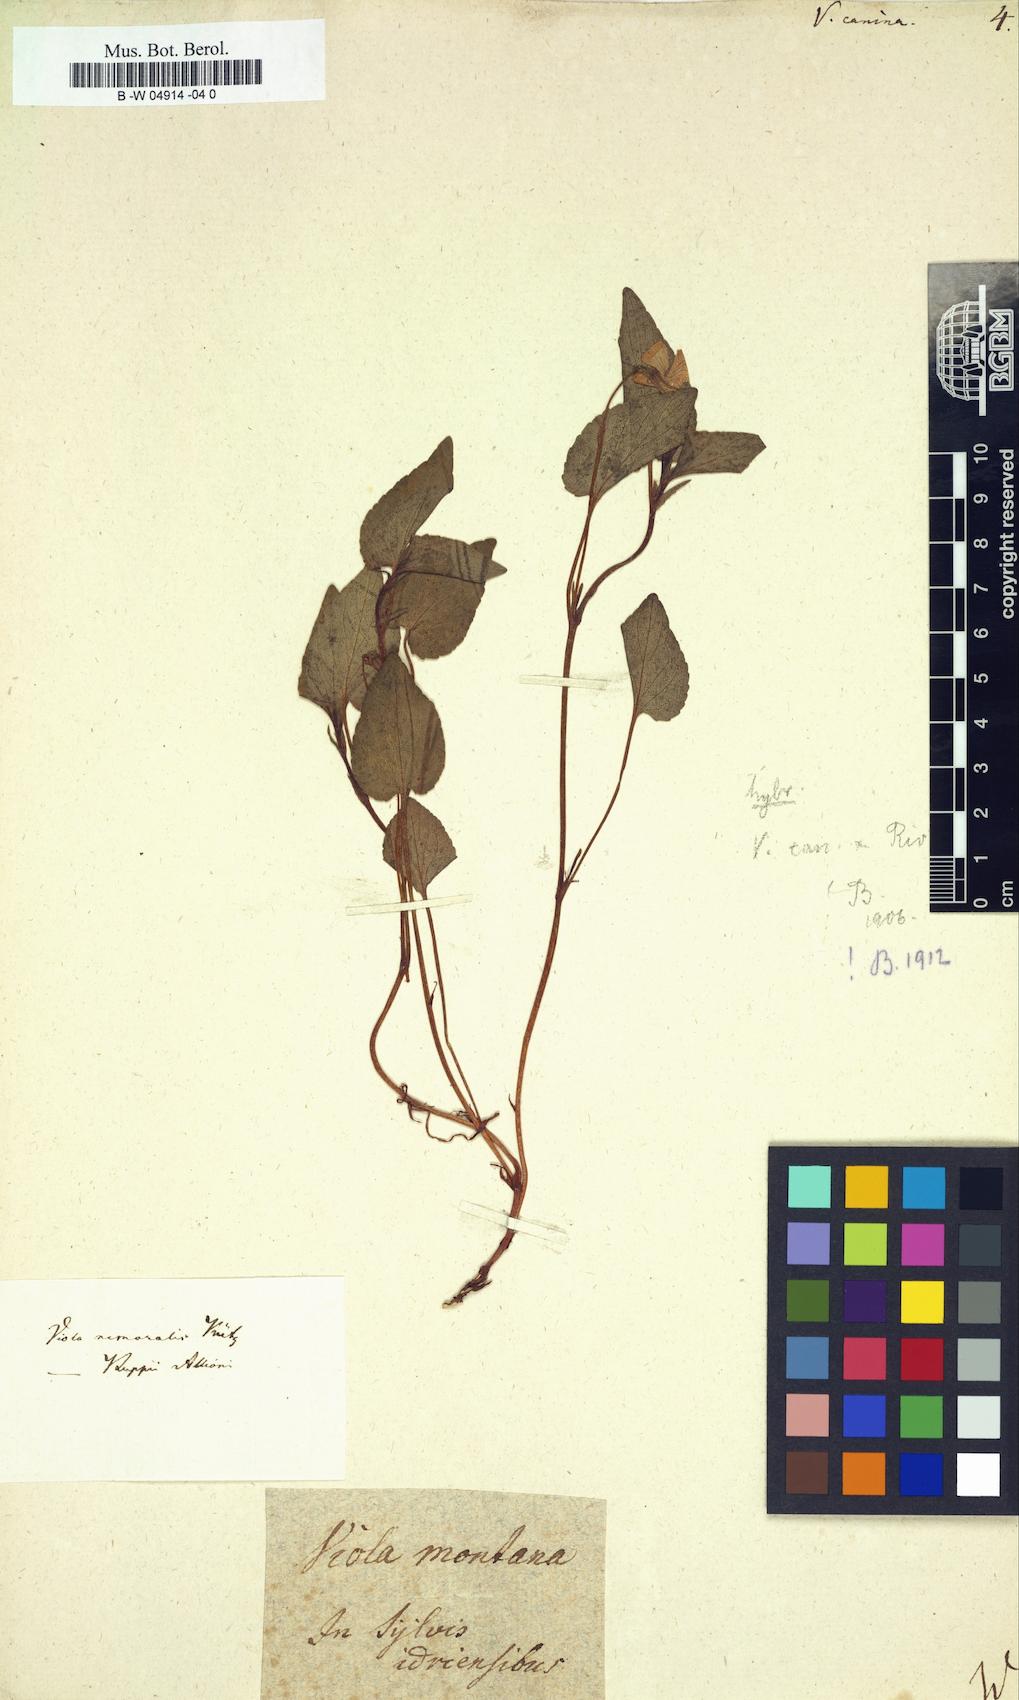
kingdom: Plantae
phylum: Tracheophyta
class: Magnoliopsida
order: Malpighiales
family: Violaceae
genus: Viola
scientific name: Viola canina
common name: Heath dog-violet
